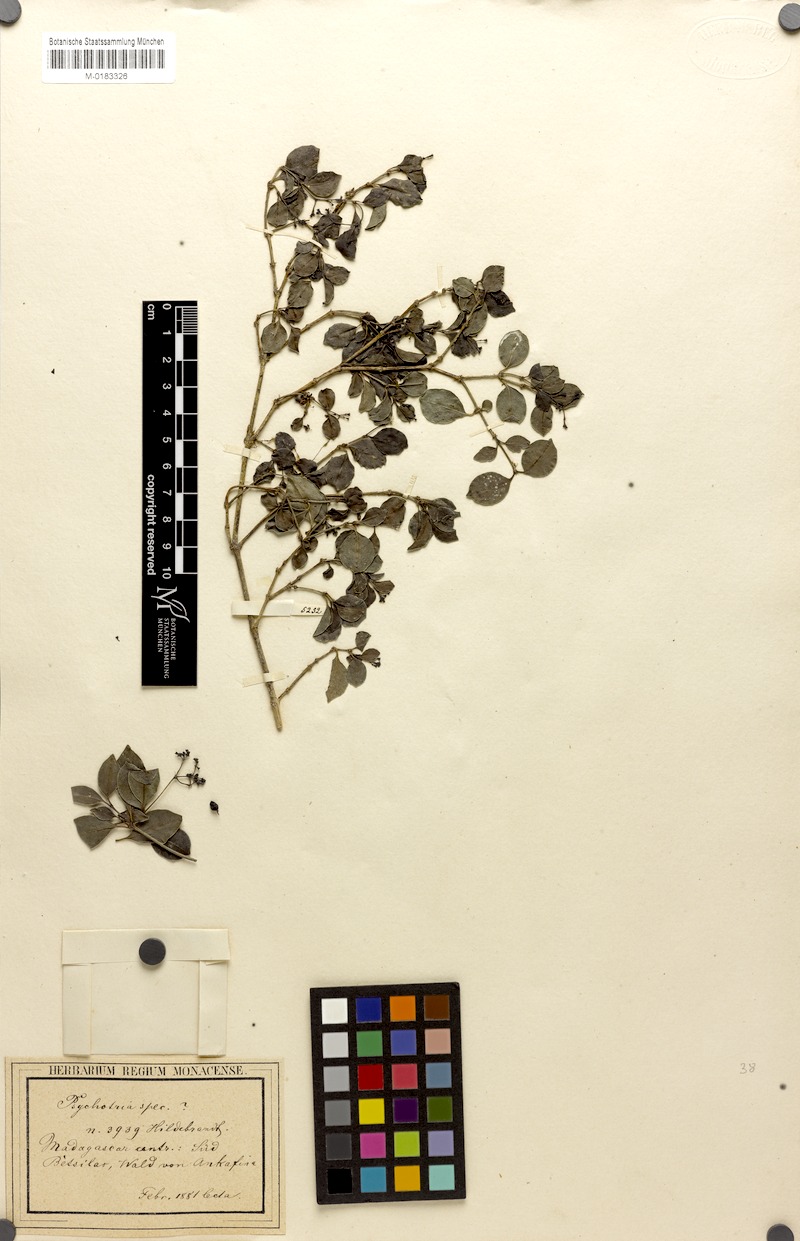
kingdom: Plantae
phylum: Tracheophyta
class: Magnoliopsida
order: Gentianales
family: Rubiaceae
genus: Psychotria
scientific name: Psychotria ankafinensis
